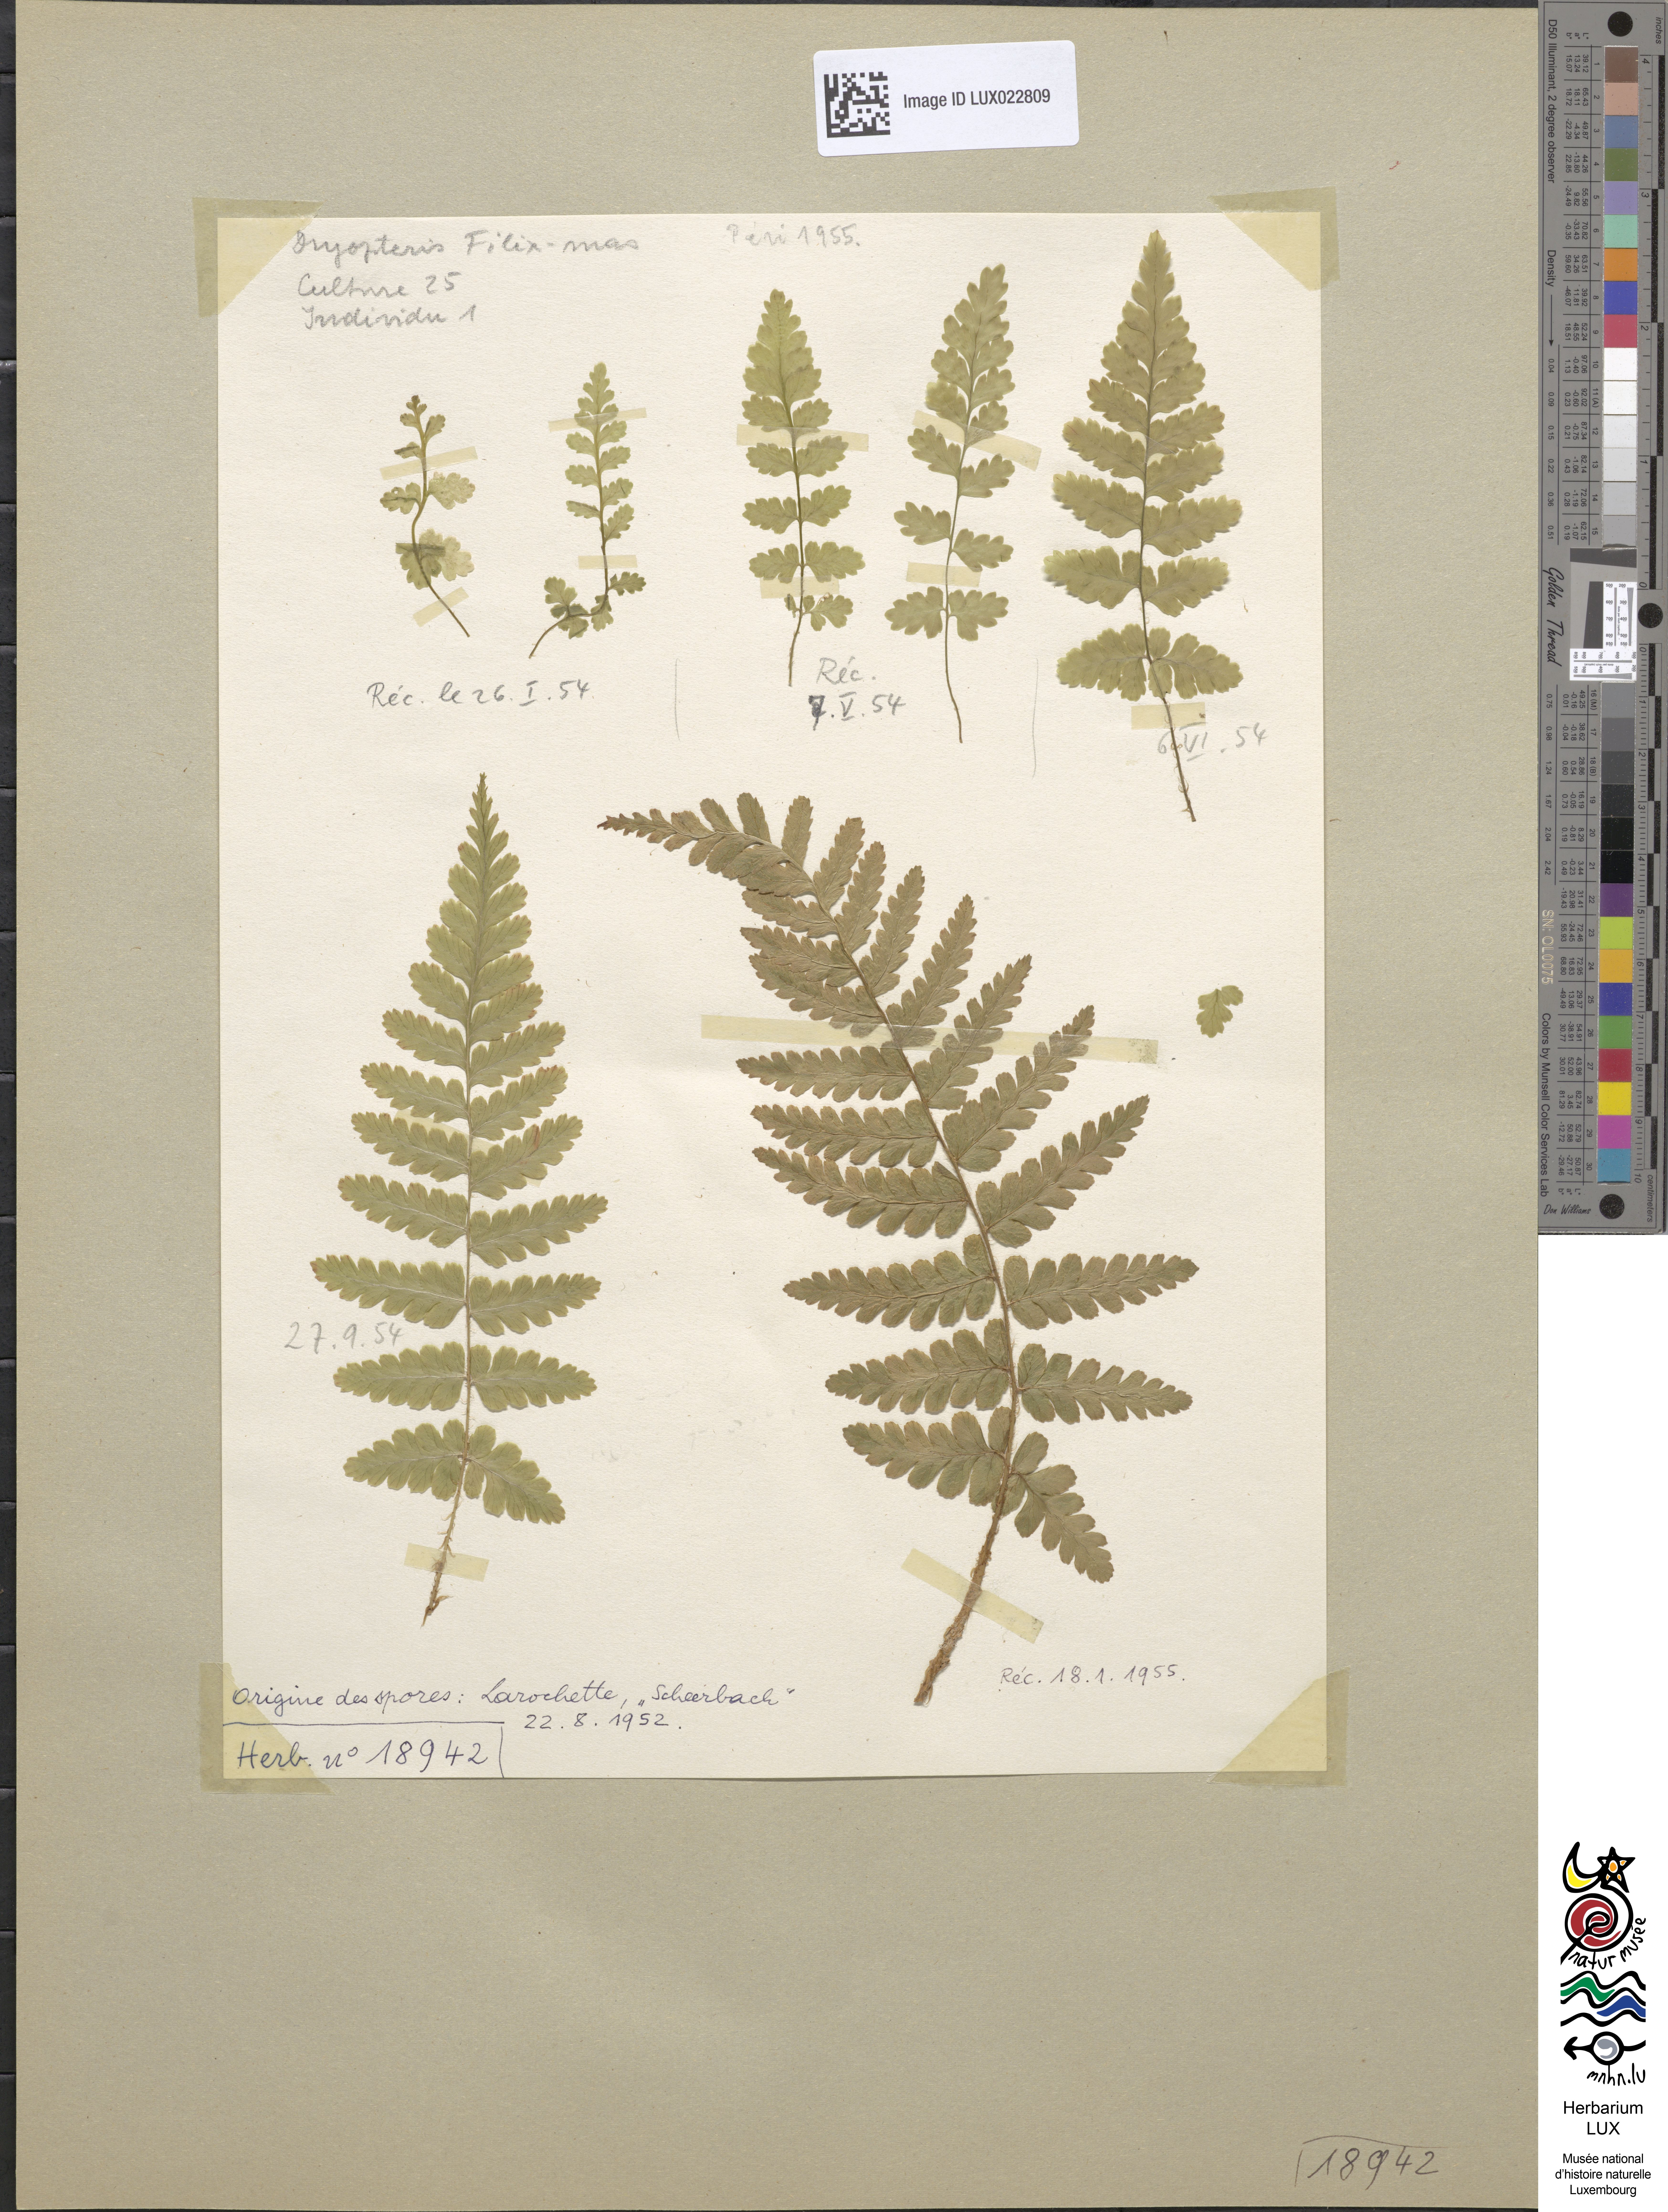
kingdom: Plantae
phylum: Tracheophyta
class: Polypodiopsida
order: Polypodiales
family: Dryopteridaceae
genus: Dryopteris
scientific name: Dryopteris filix-mas
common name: Male fern
